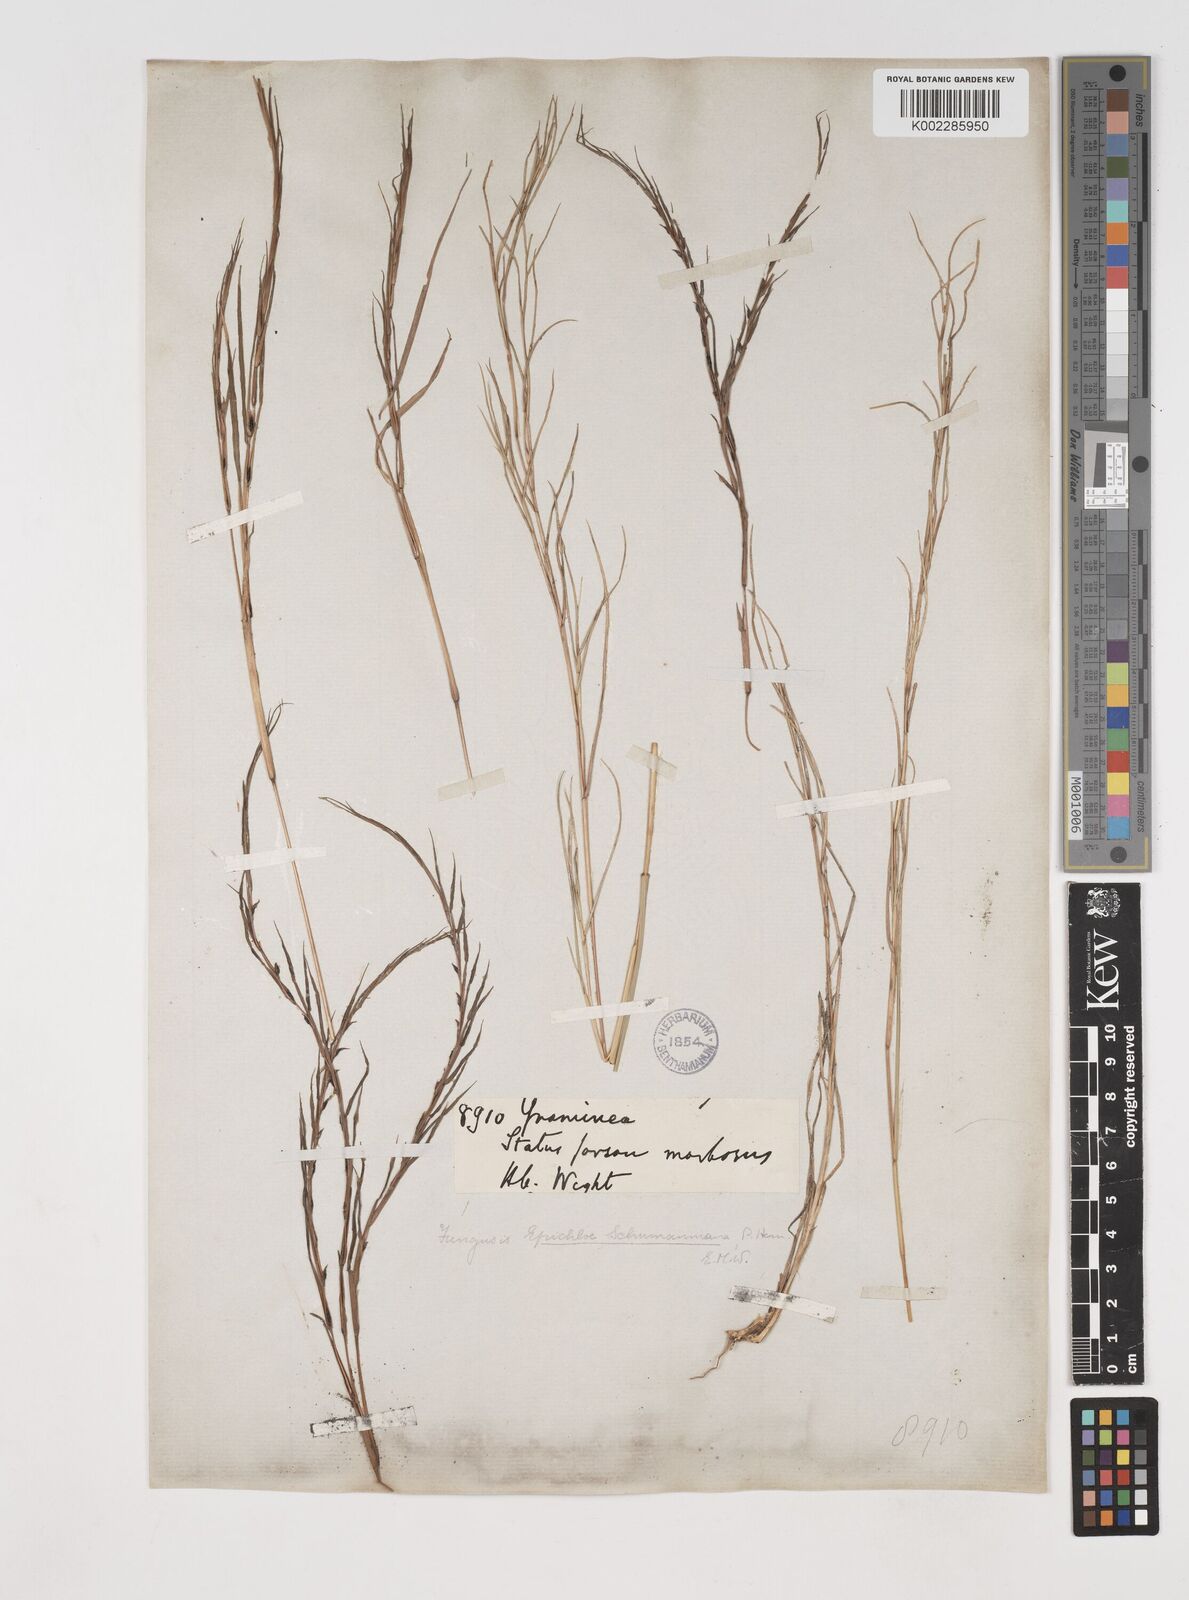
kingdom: Plantae
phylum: Tracheophyta
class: Liliopsida
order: Poales
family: Poaceae
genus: Schizachyrium
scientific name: Schizachyrium brevifolium
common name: Serillo dulce
